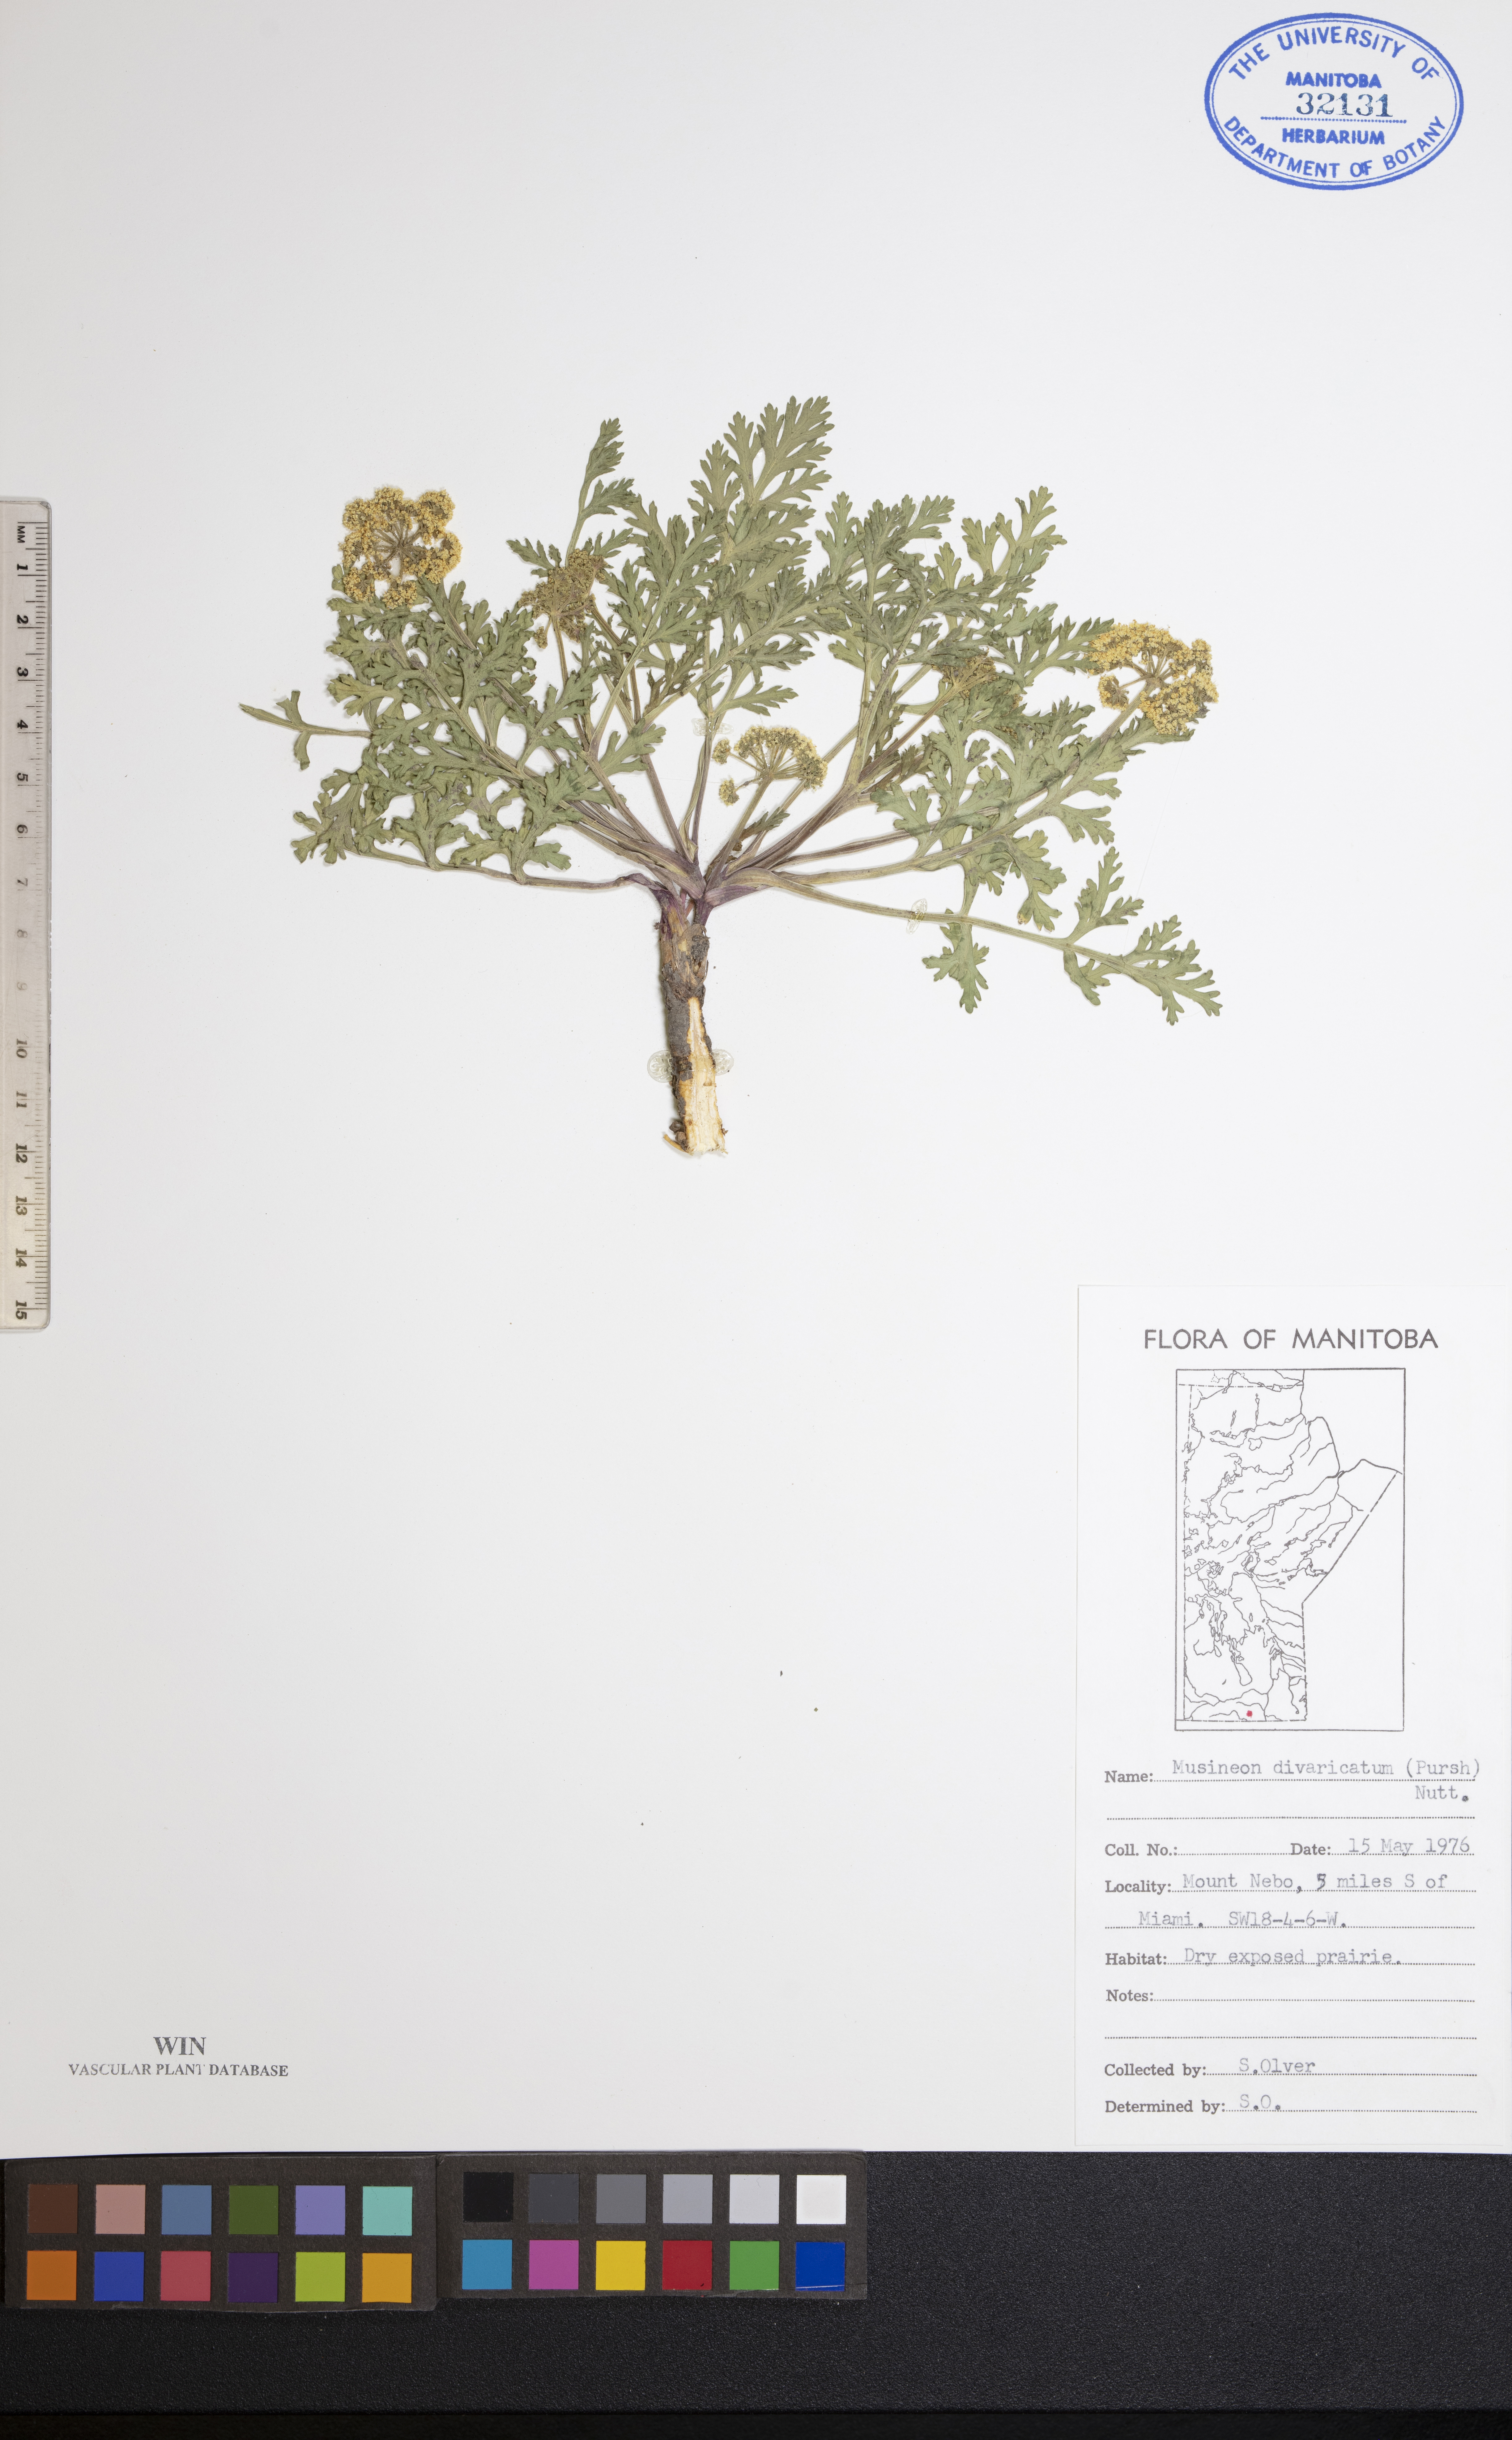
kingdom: Plantae
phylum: Tracheophyta
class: Magnoliopsida
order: Apiales
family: Apiaceae
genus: Musineon
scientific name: Musineon divaricatum
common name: Plains musineon
